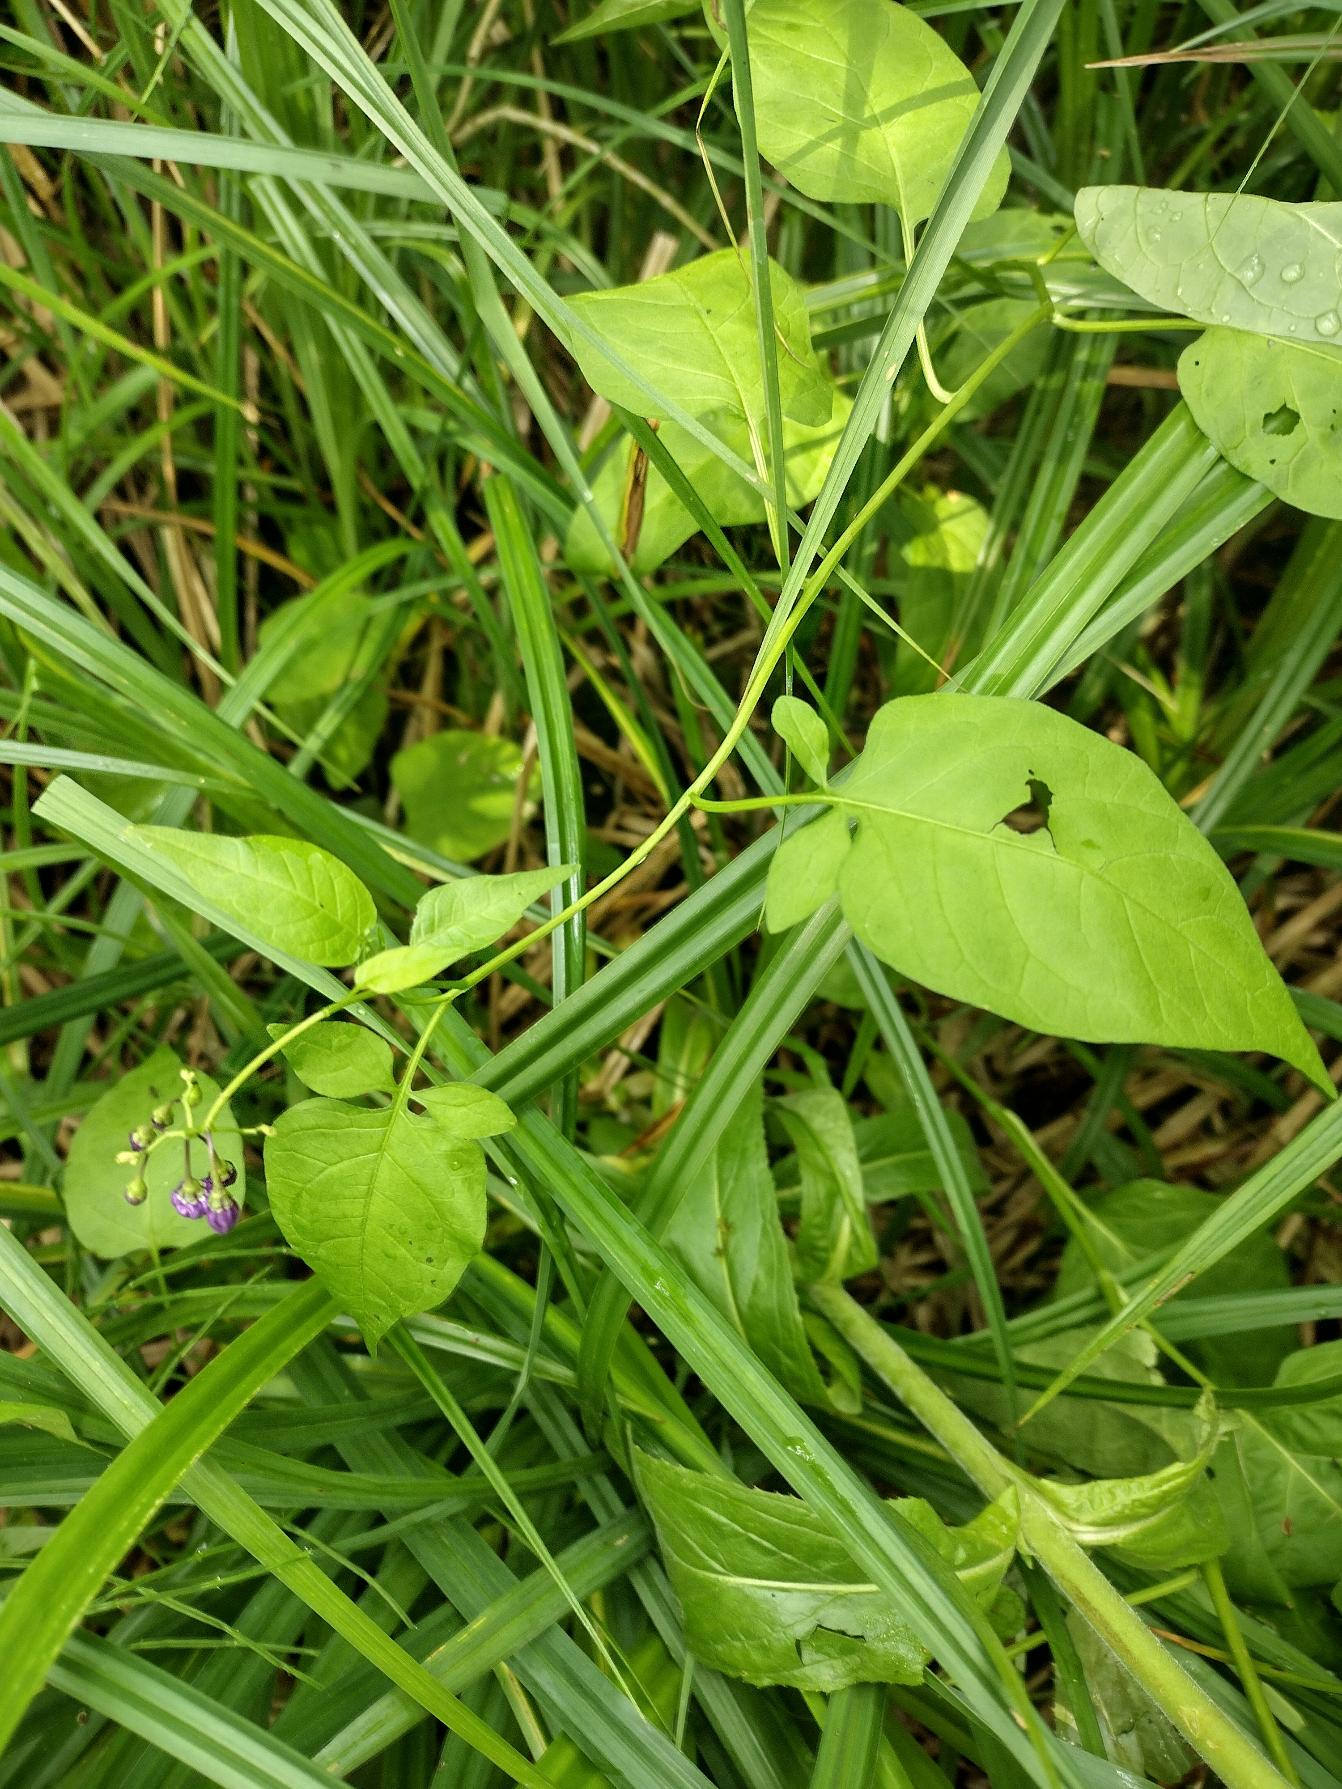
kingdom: Plantae
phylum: Tracheophyta
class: Magnoliopsida
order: Solanales
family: Solanaceae
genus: Solanum
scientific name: Solanum dulcamara
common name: Bittersød natskygge
